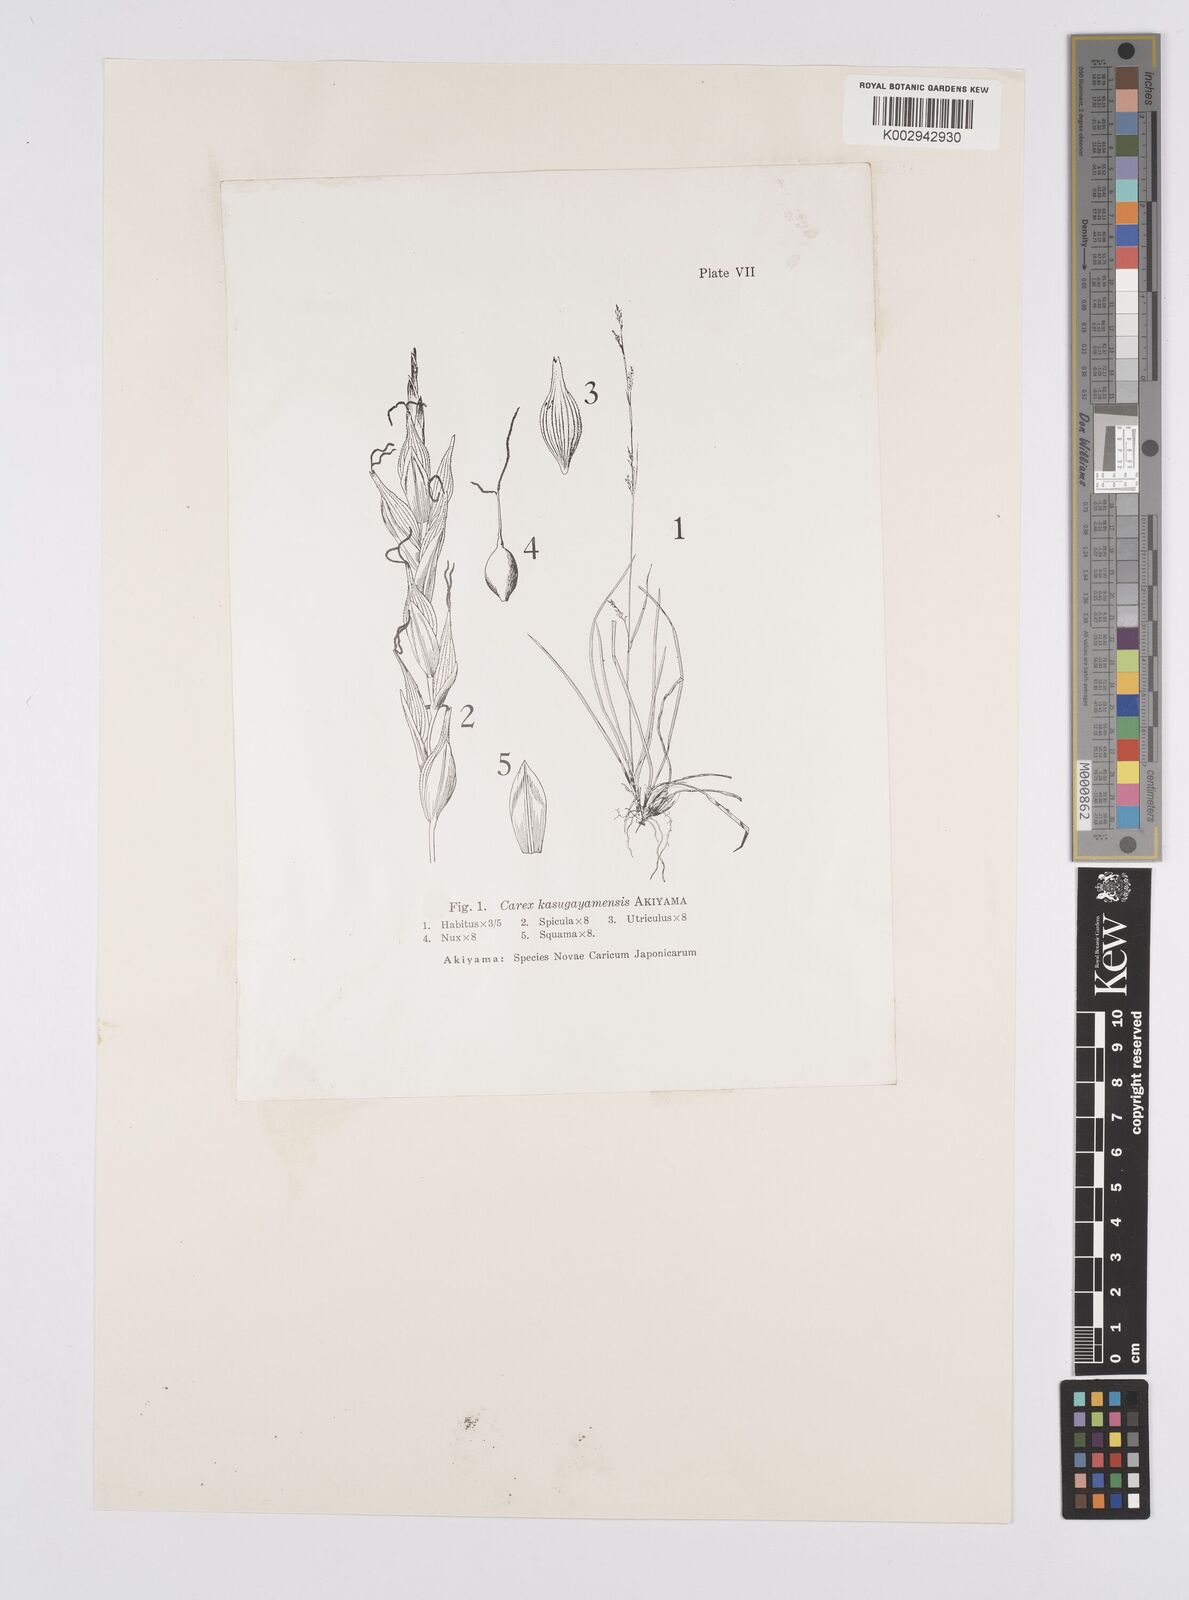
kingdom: Plantae
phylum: Tracheophyta
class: Liliopsida
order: Poales
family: Cyperaceae
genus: Carex
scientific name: Carex sacrosancta
